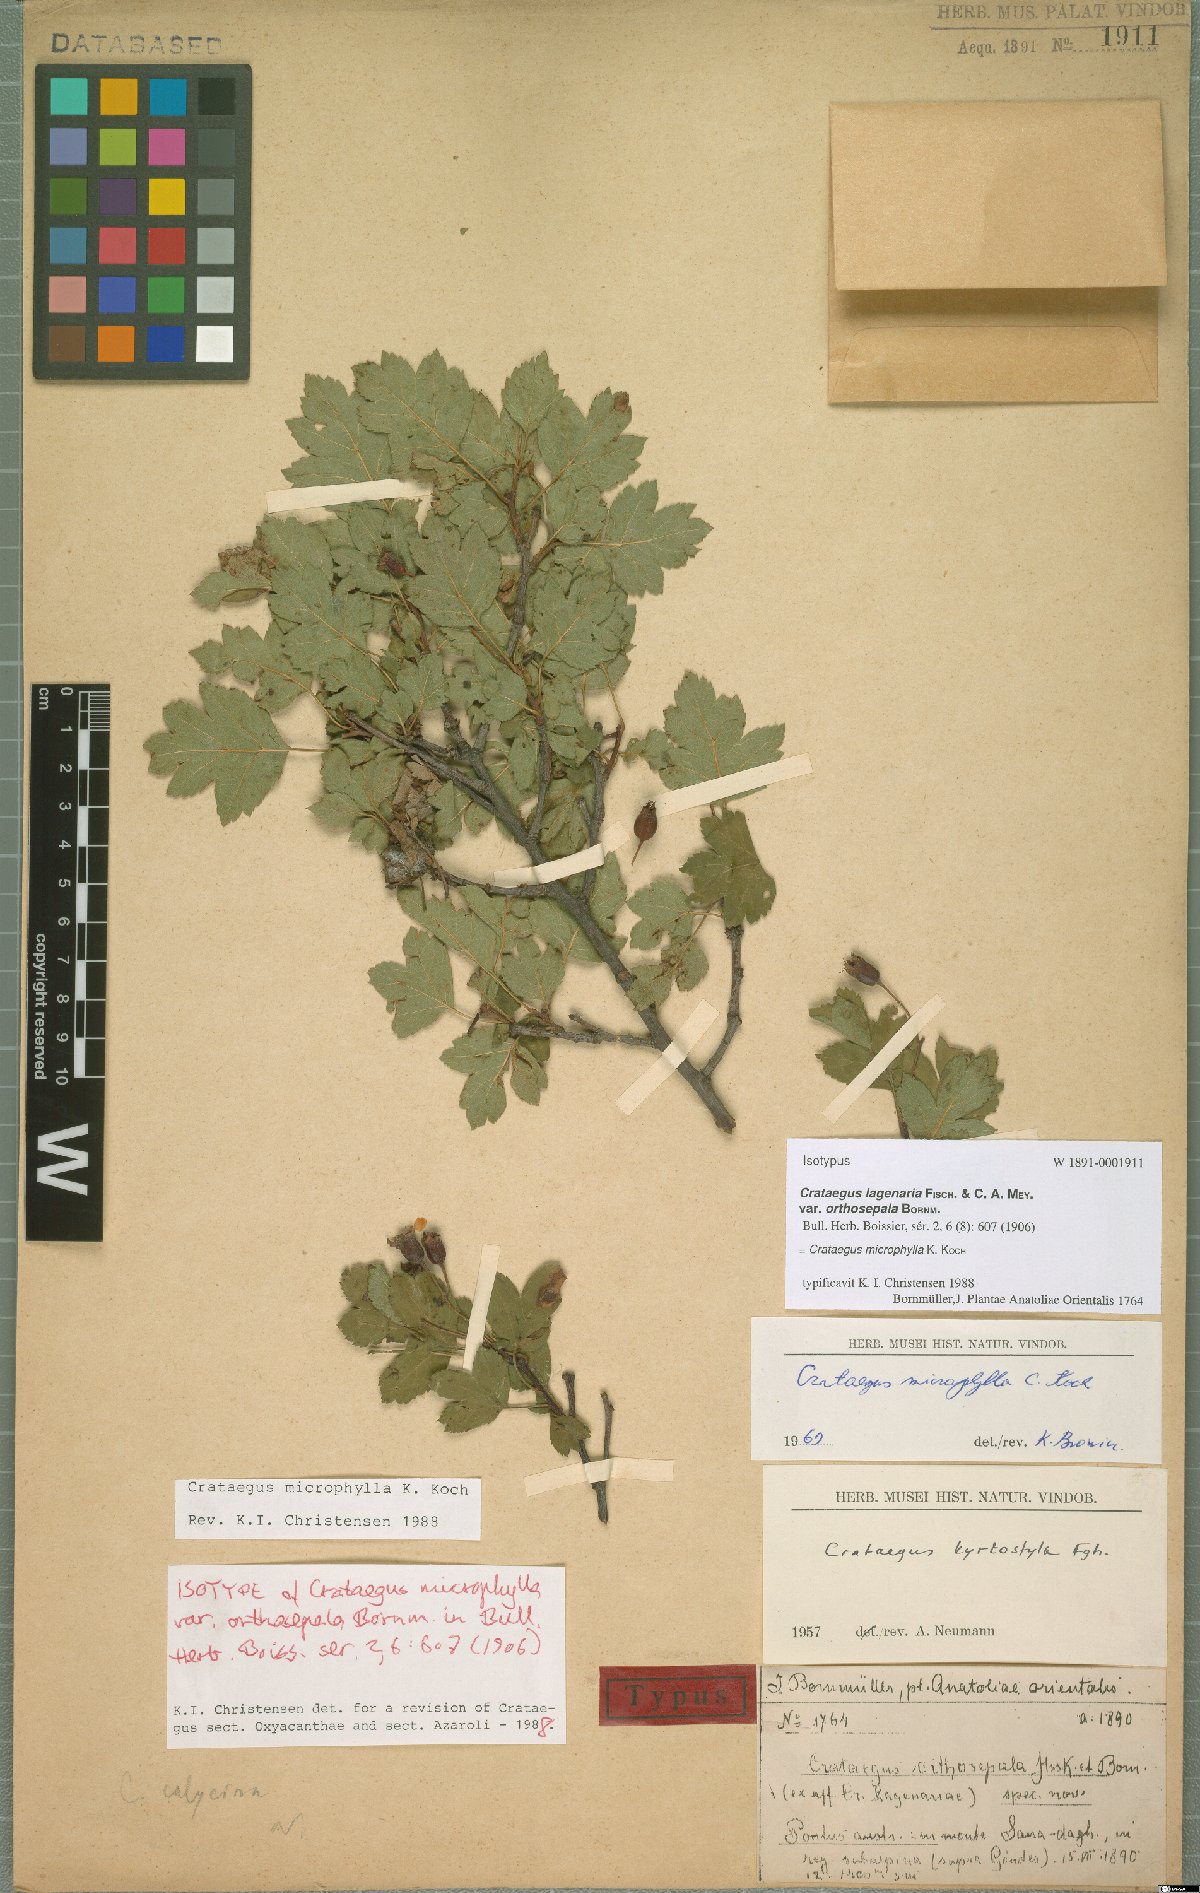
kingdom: Plantae
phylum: Tracheophyta
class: Magnoliopsida
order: Rosales
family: Rosaceae
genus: Crataegus
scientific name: Crataegus microphylla
